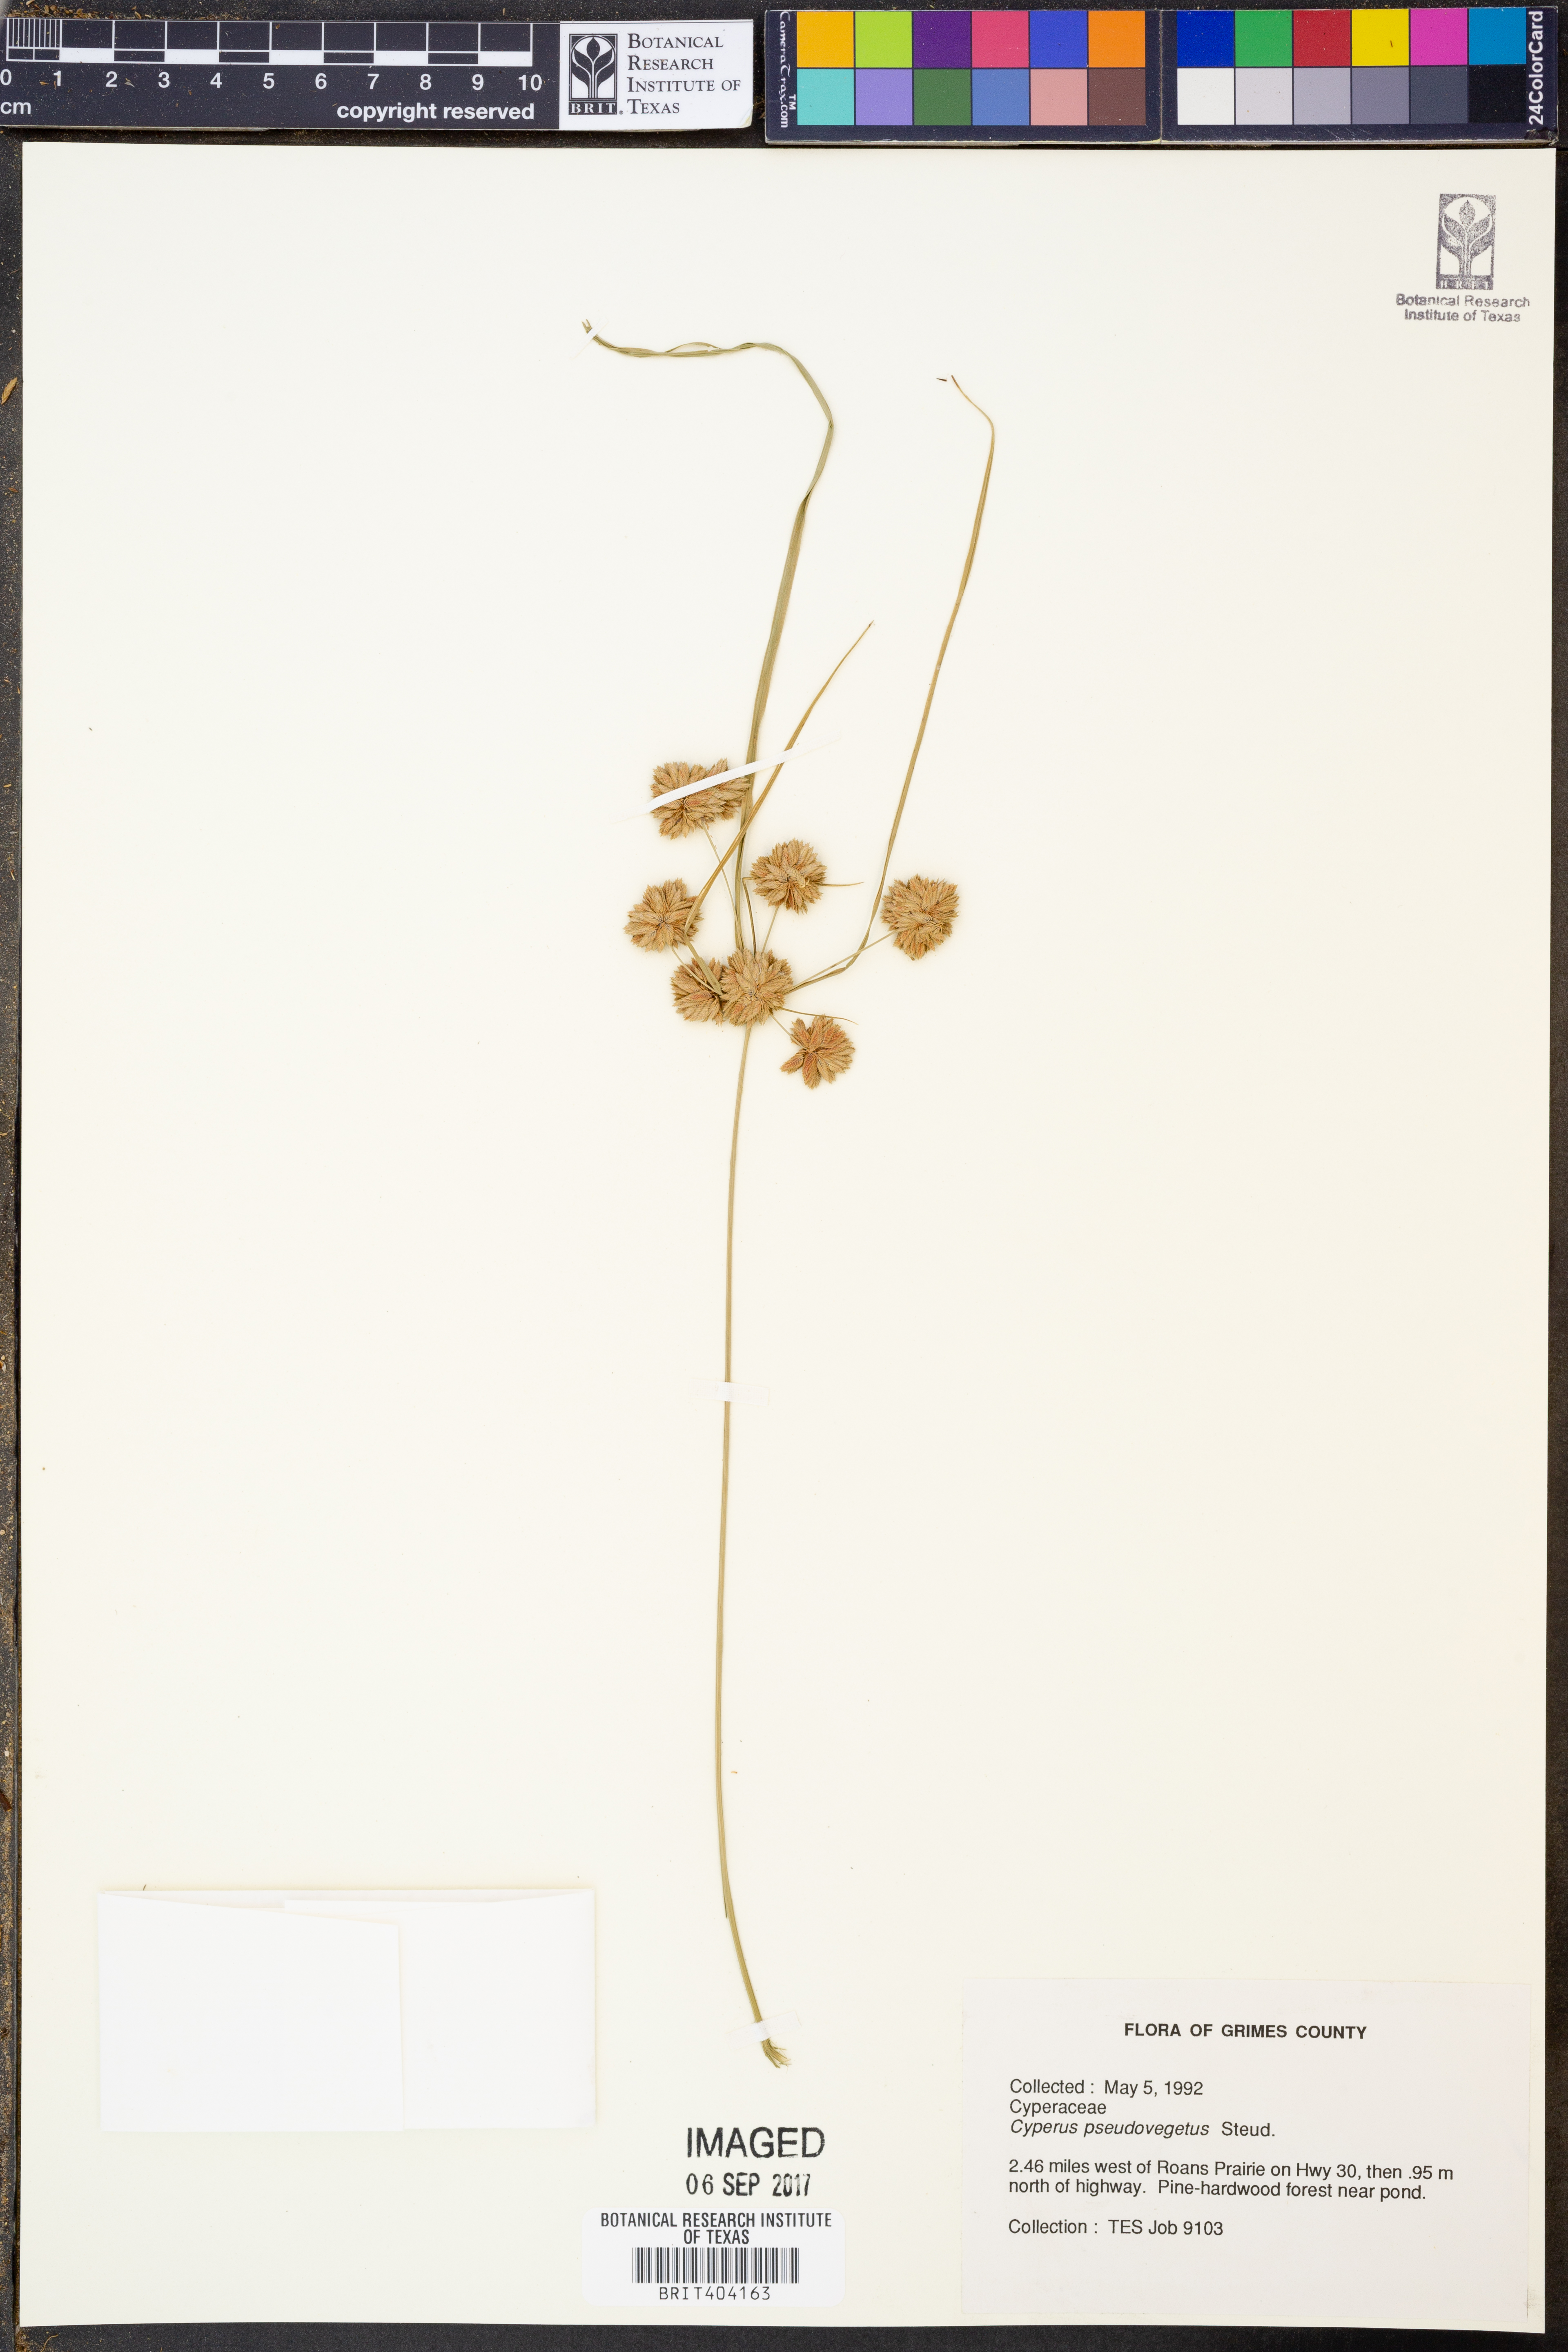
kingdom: Plantae
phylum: Tracheophyta
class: Liliopsida
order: Poales
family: Cyperaceae
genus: Cyperus
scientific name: Cyperus pseudovegetus
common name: Marsh flat sedge
